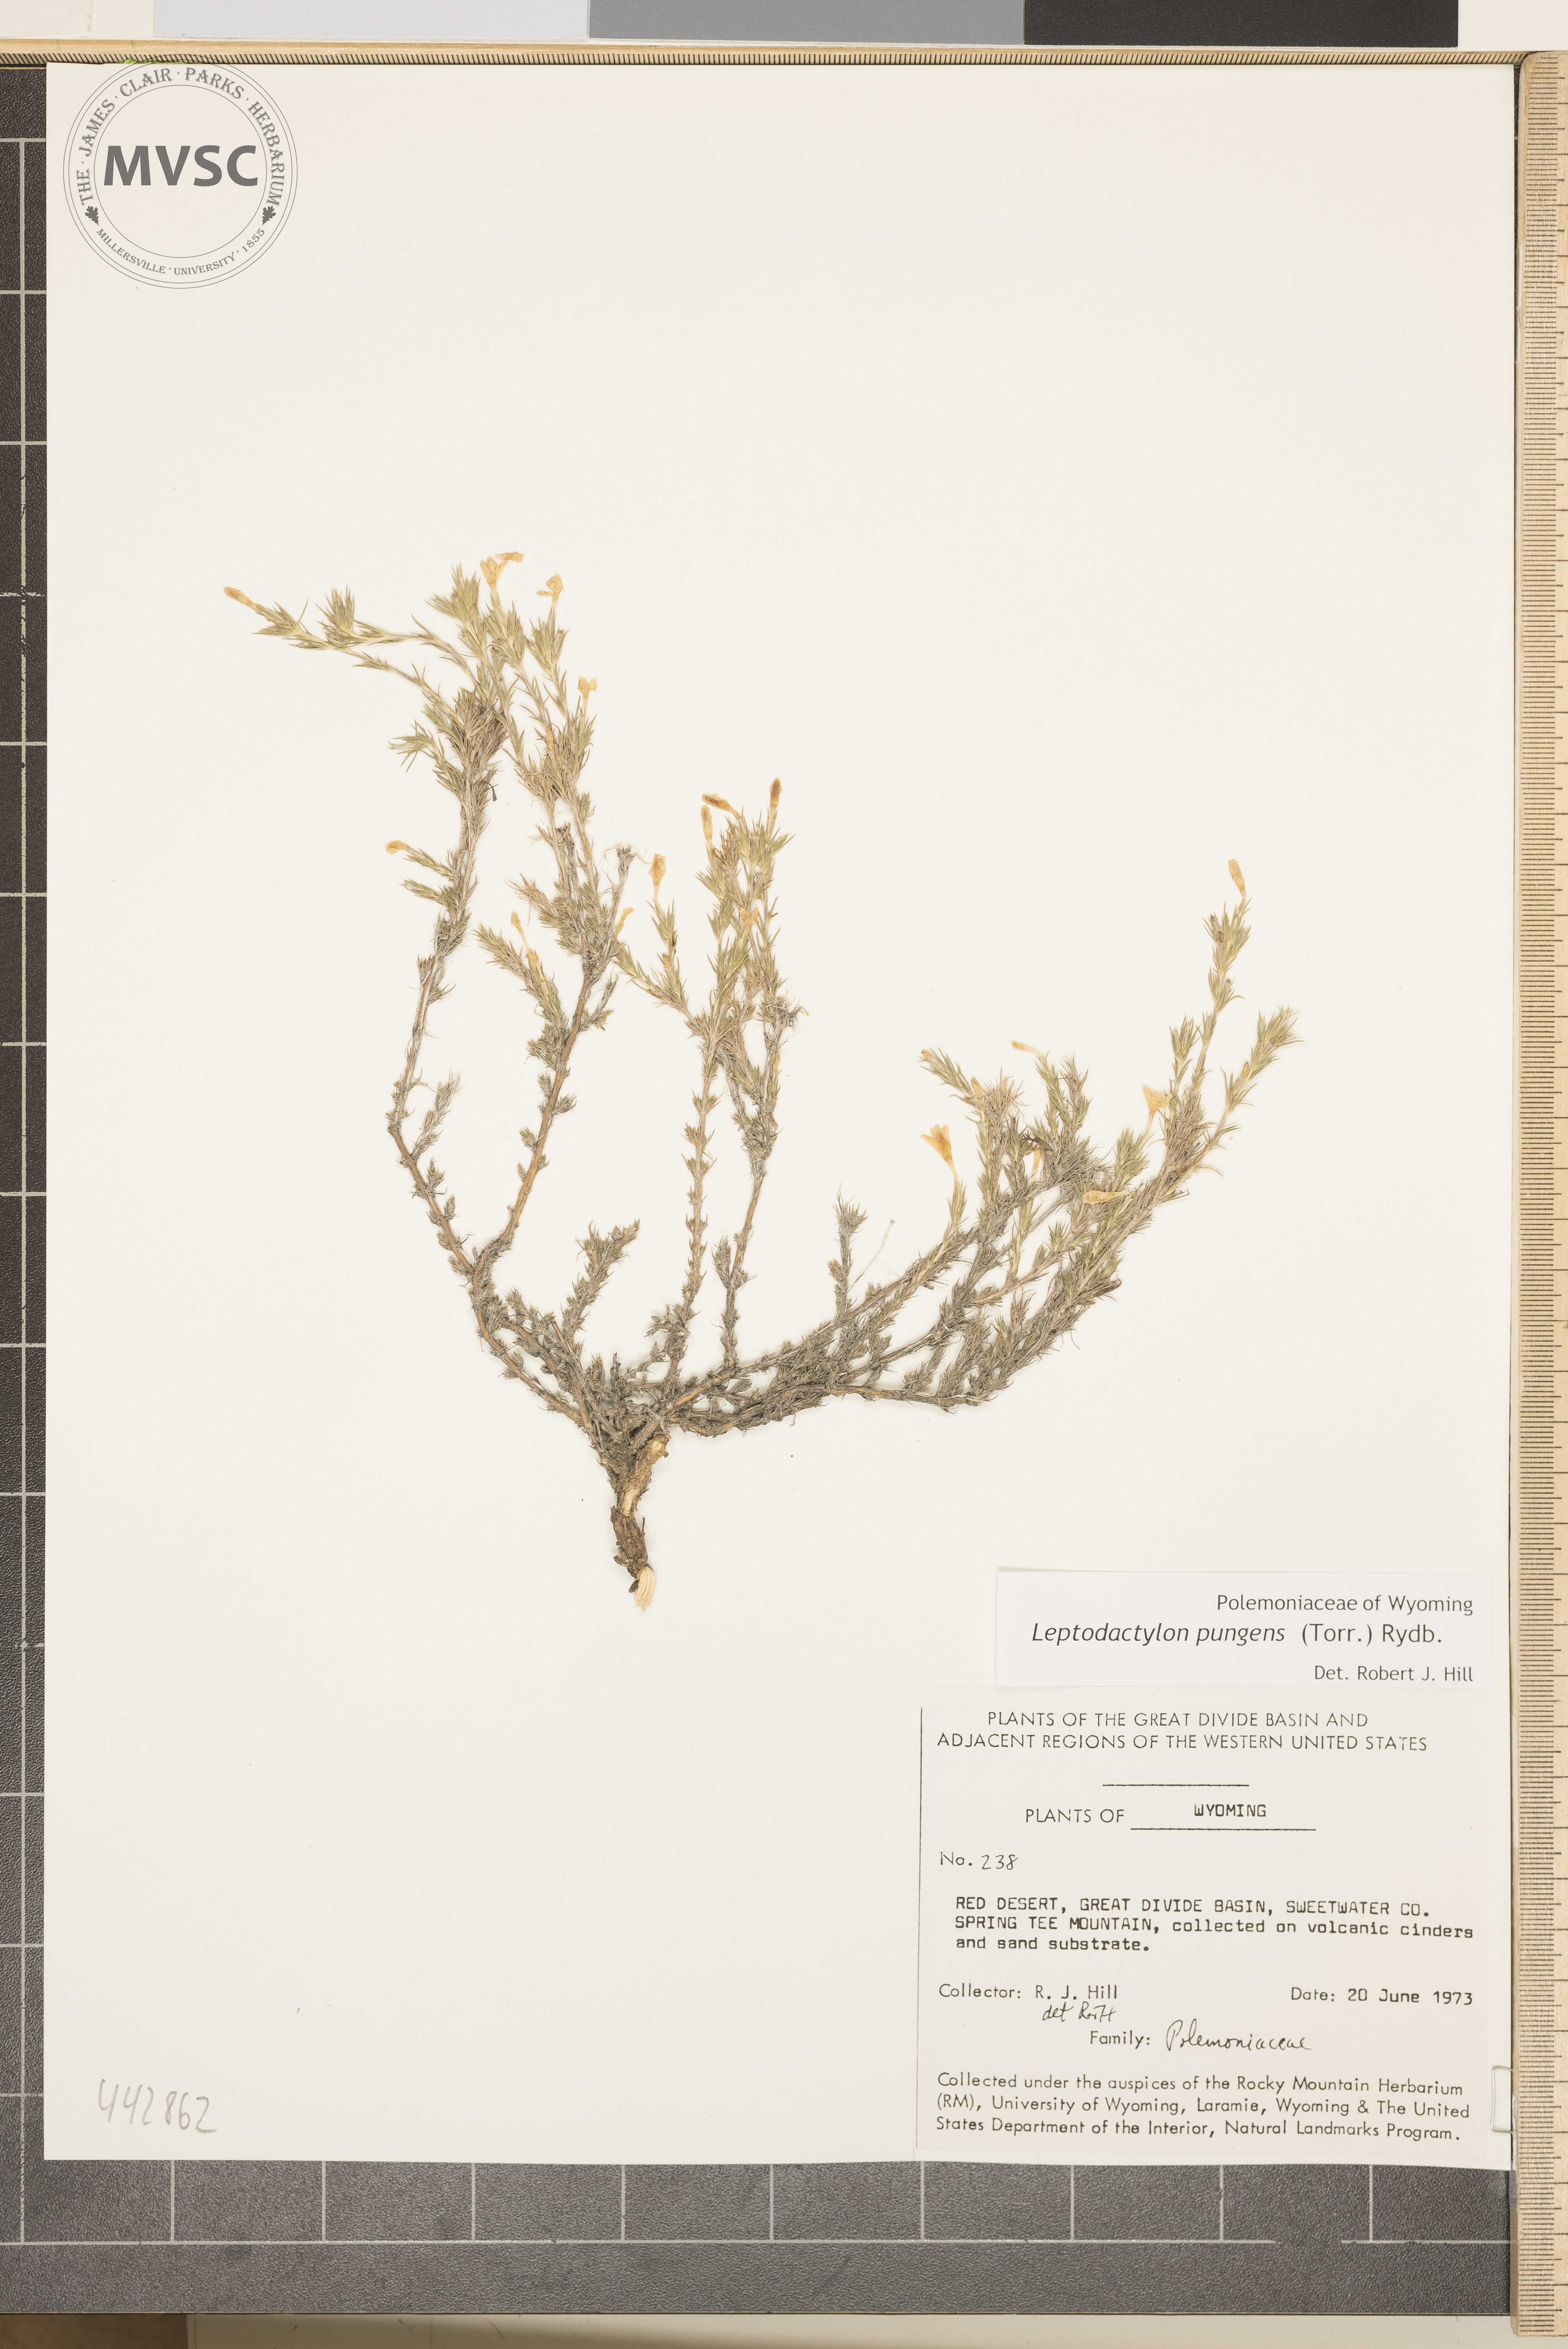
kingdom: Plantae
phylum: Tracheophyta
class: Magnoliopsida
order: Ericales
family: Polemoniaceae
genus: Linanthus
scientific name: Linanthus pungens
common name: Granite prickly phlox
